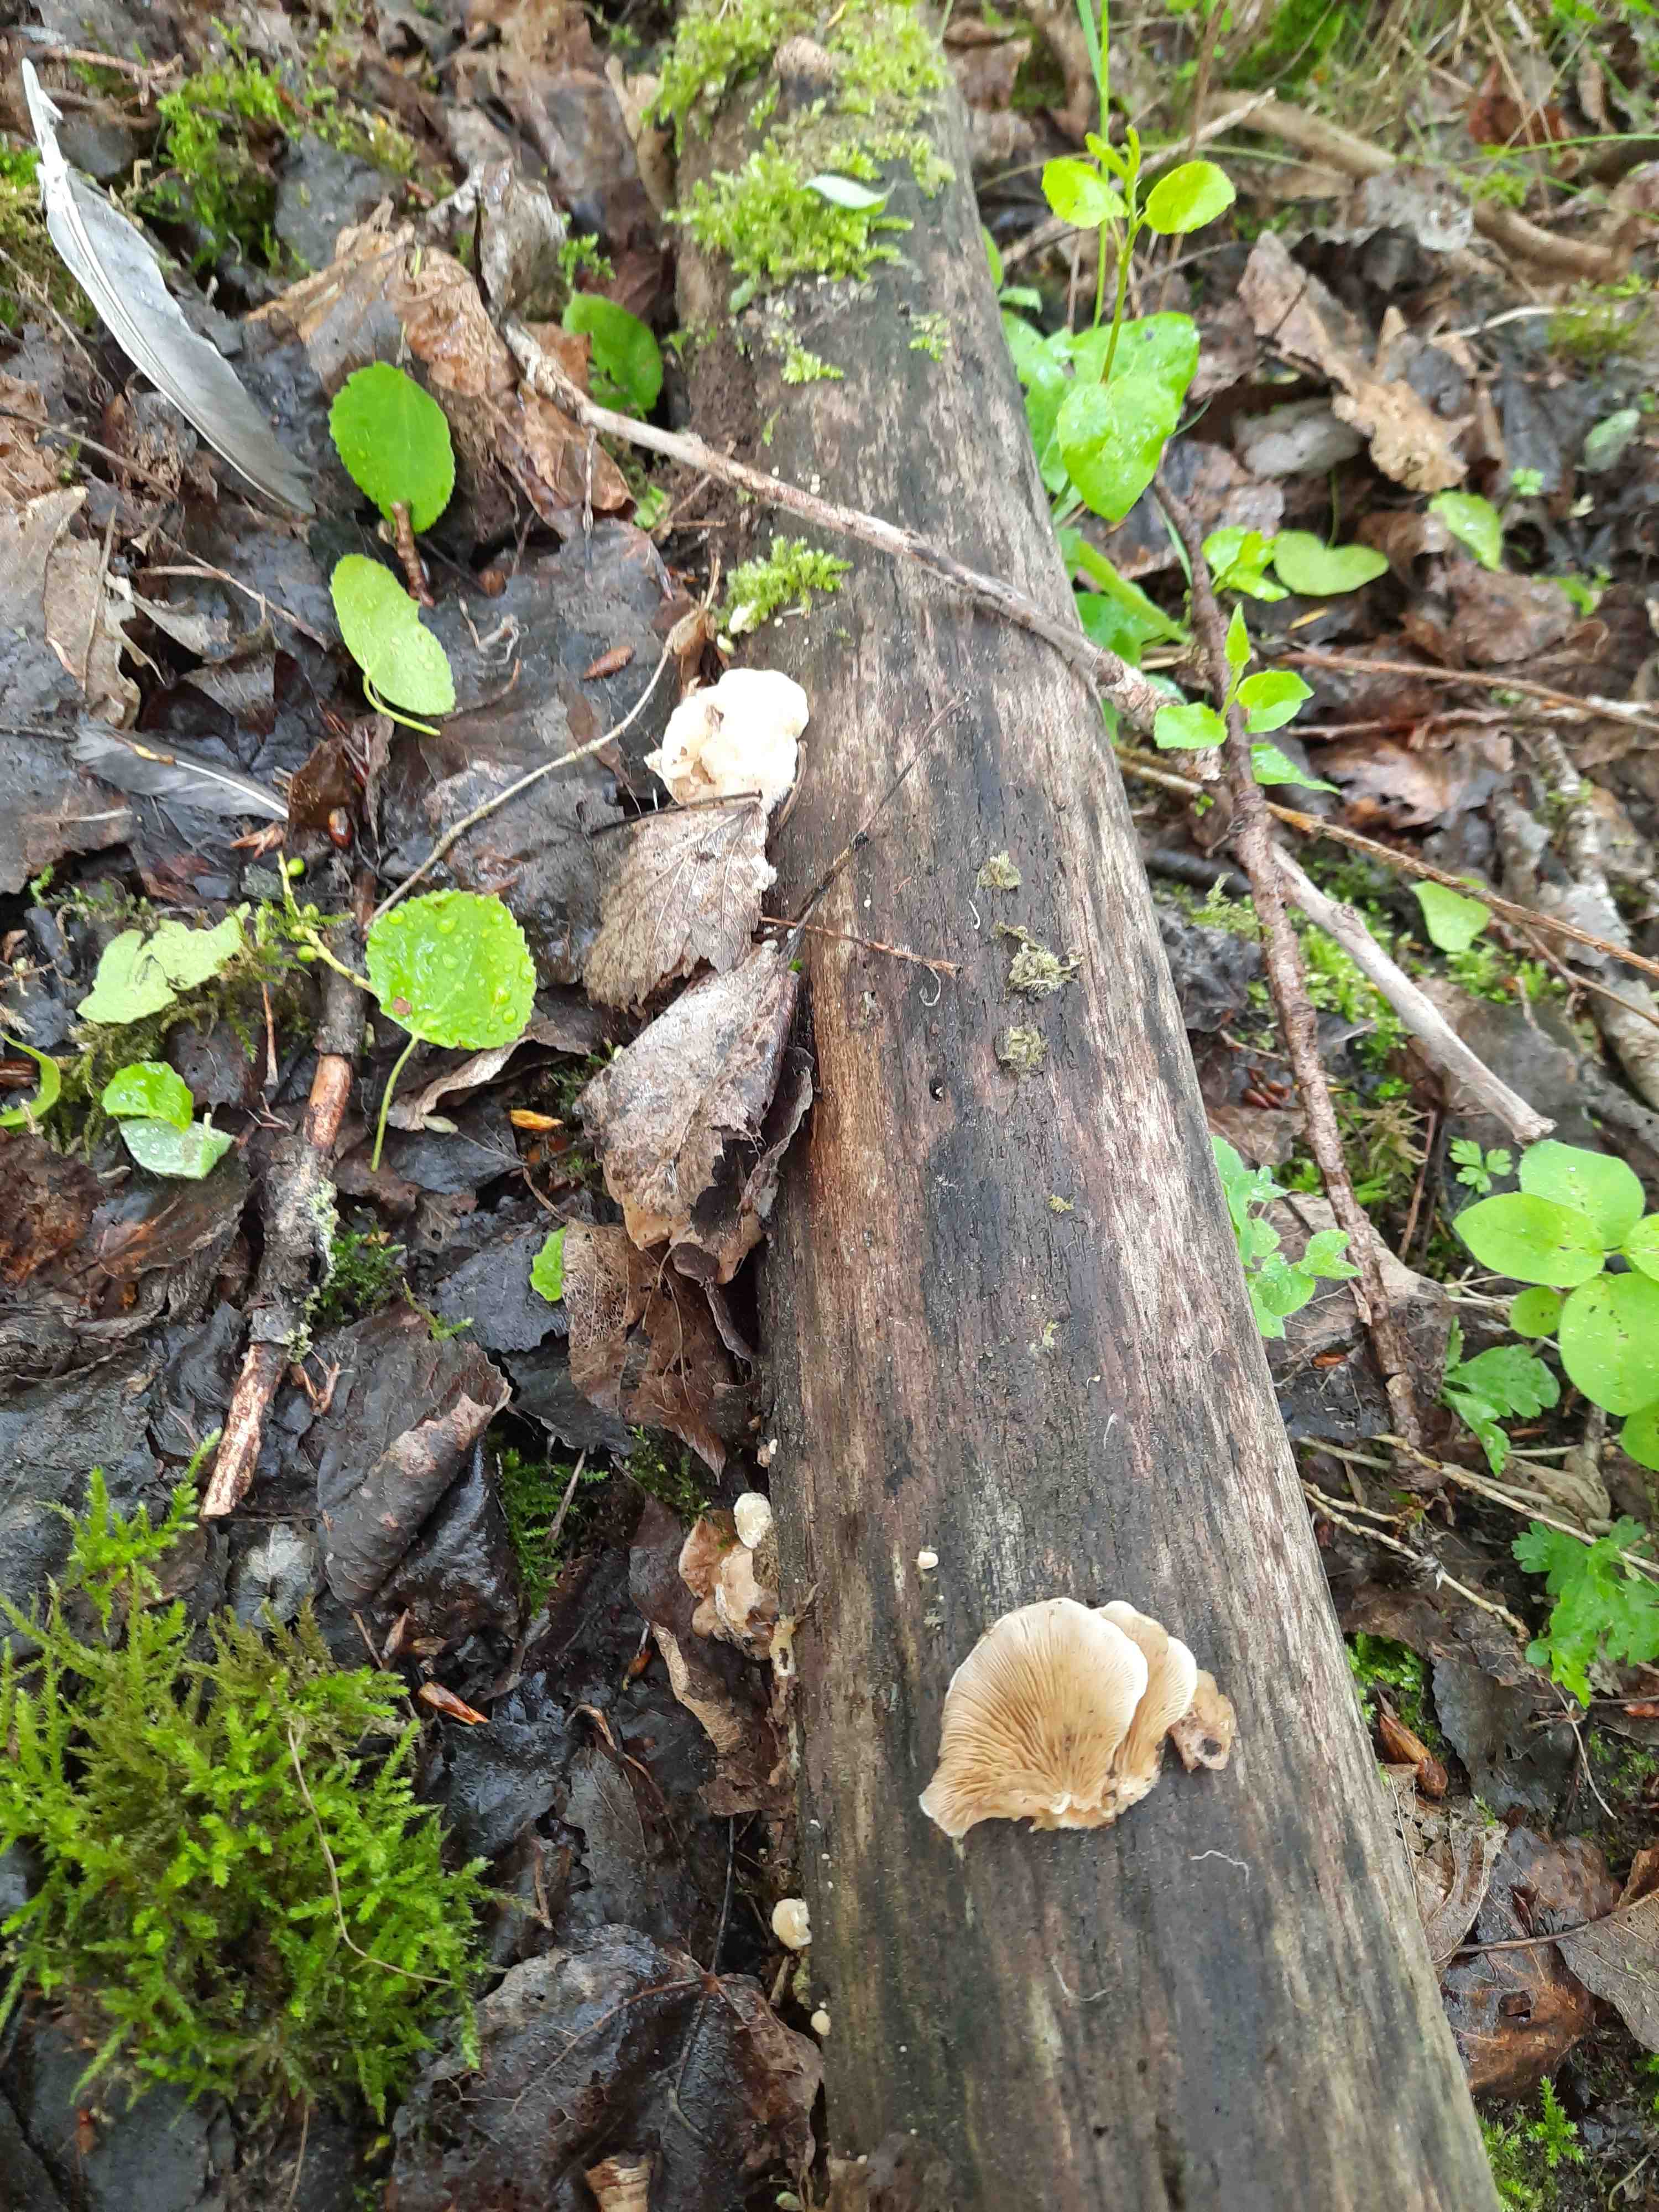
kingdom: Fungi
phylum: Basidiomycota
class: Agaricomycetes
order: Agaricales
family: Crepidotaceae
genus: Crepidotus
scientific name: Crepidotus mollis
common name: blød muslingesvamp
